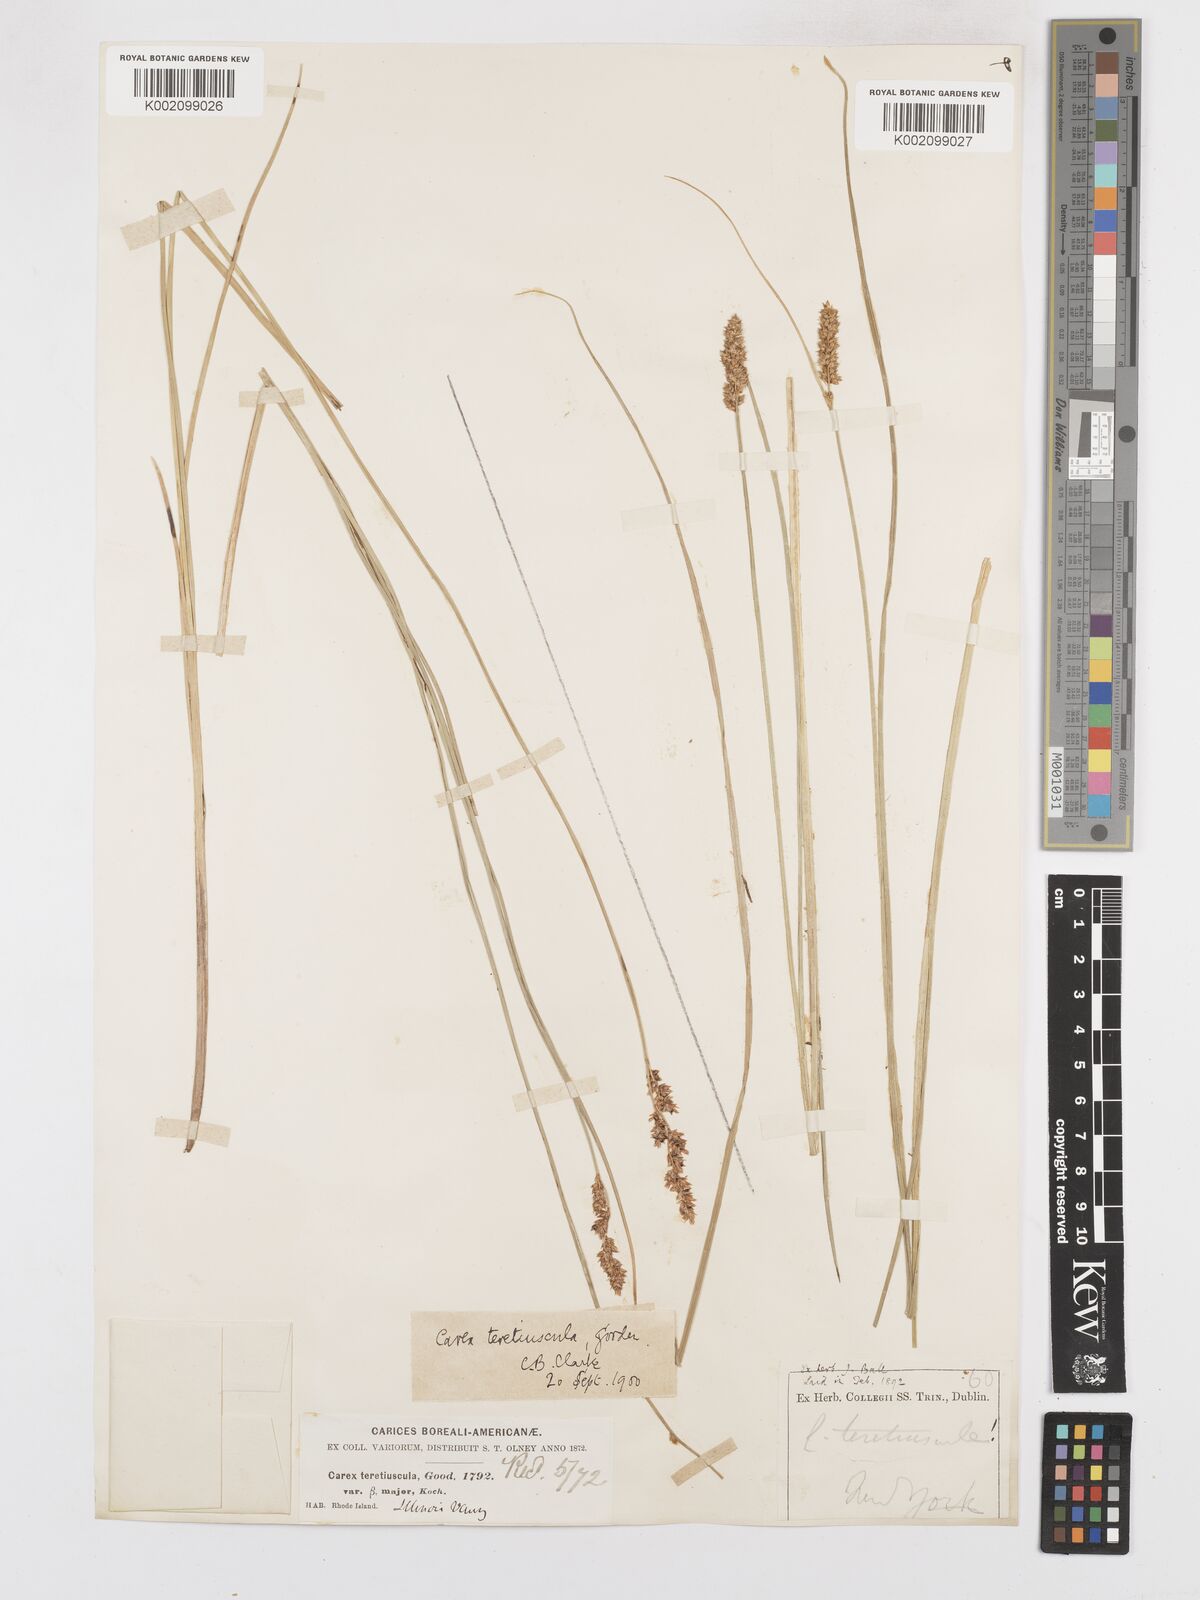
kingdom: Plantae
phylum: Tracheophyta
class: Liliopsida
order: Poales
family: Cyperaceae
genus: Carex
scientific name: Carex diandra
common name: Lesser tussock-sedge
